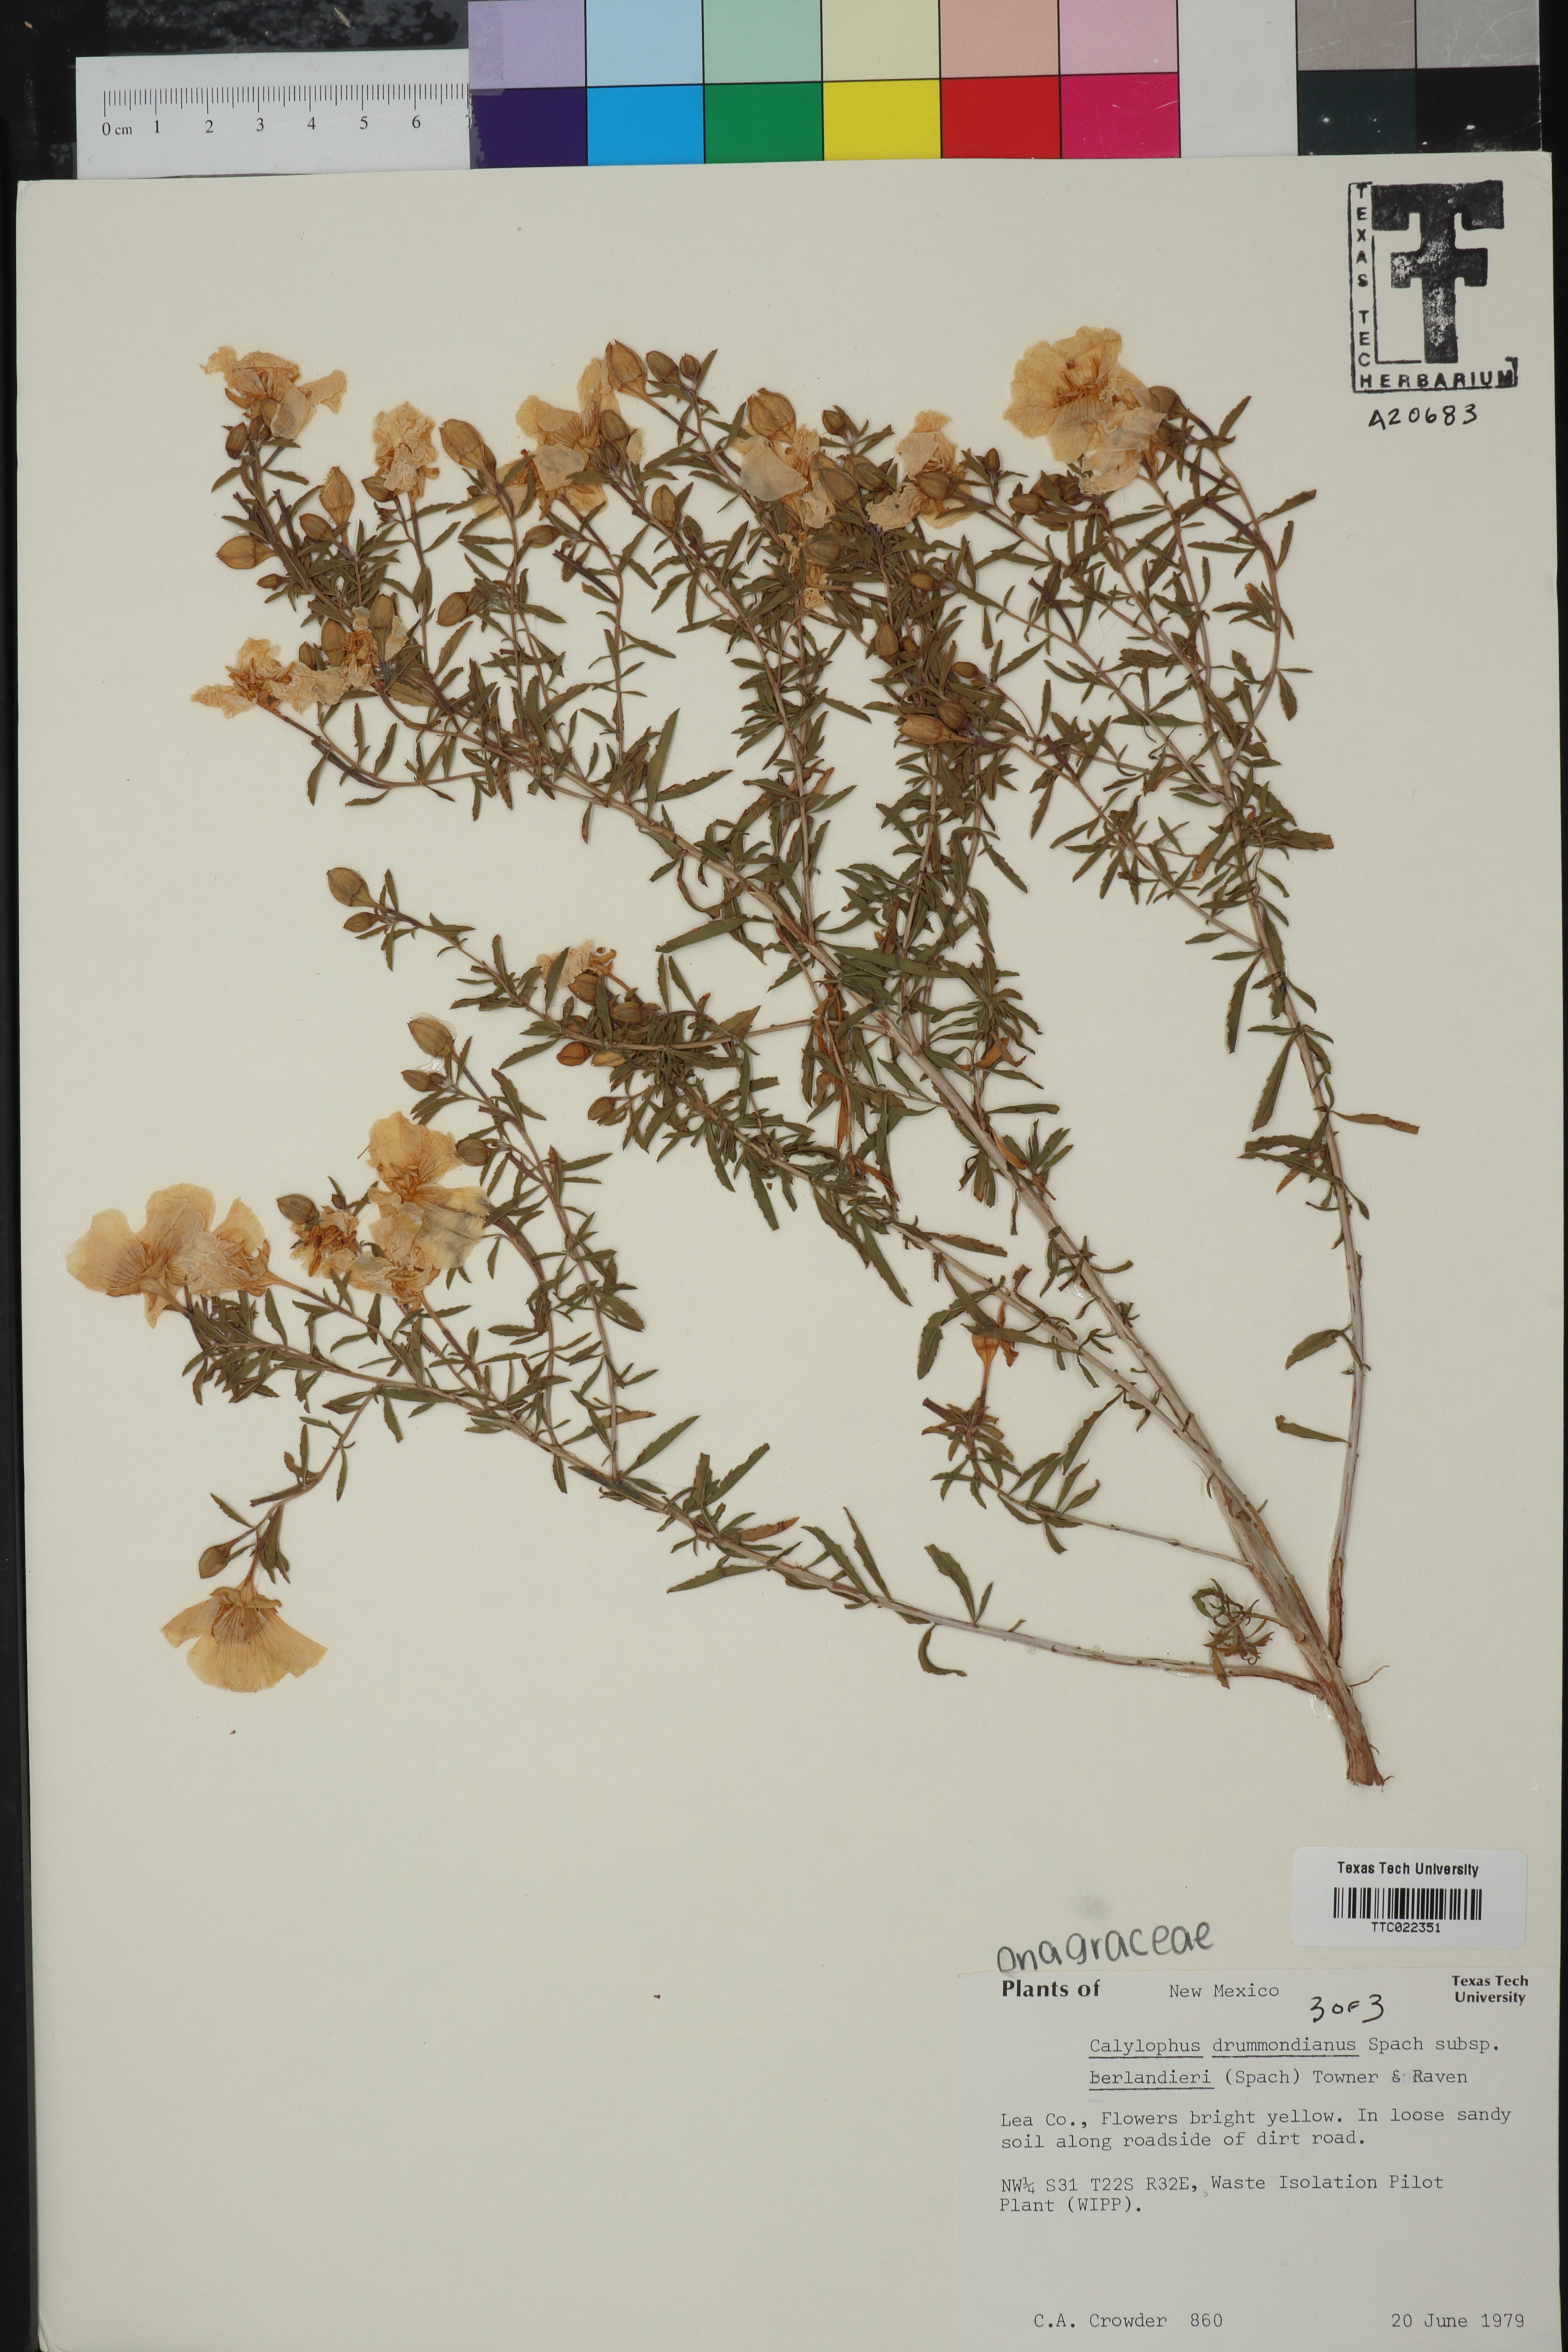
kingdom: Plantae
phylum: Tracheophyta
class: Magnoliopsida
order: Myrtales
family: Onagraceae
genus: Oenothera
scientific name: Oenothera capillifolia
